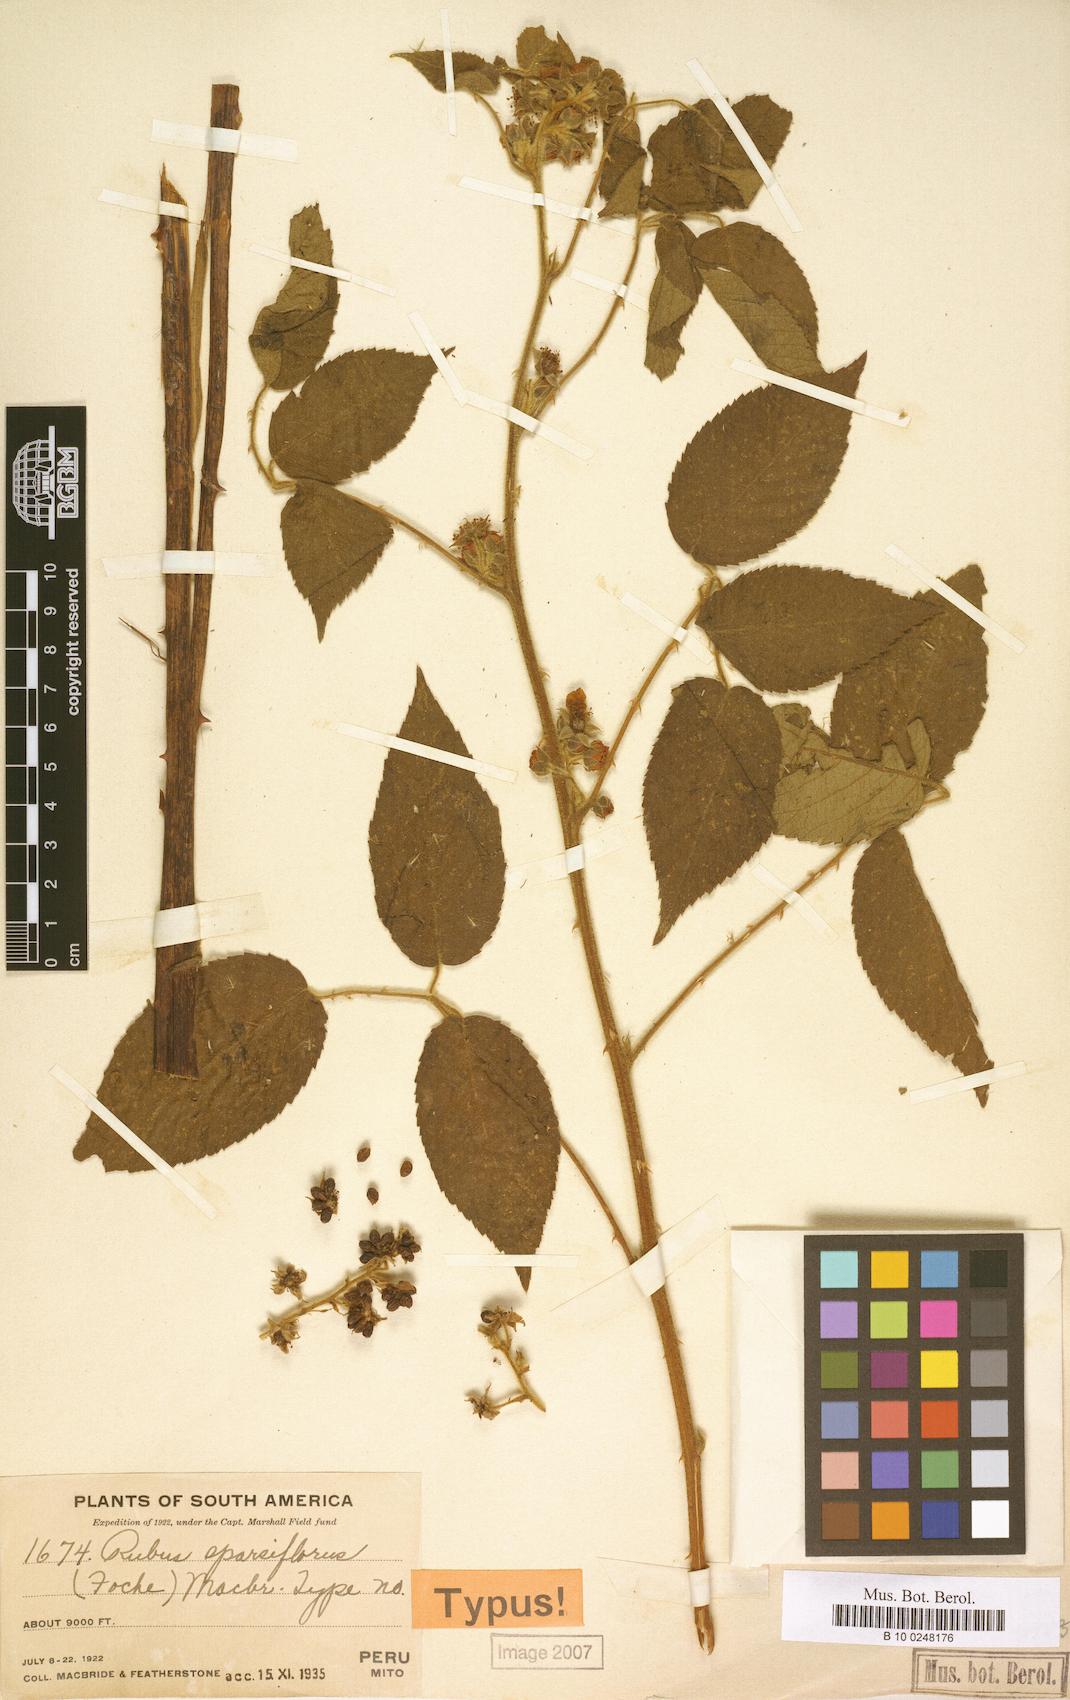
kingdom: Plantae
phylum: Tracheophyta
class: Magnoliopsida
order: Rosales
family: Rosaceae
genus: Rubus
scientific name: Rubus sparsiflorus
